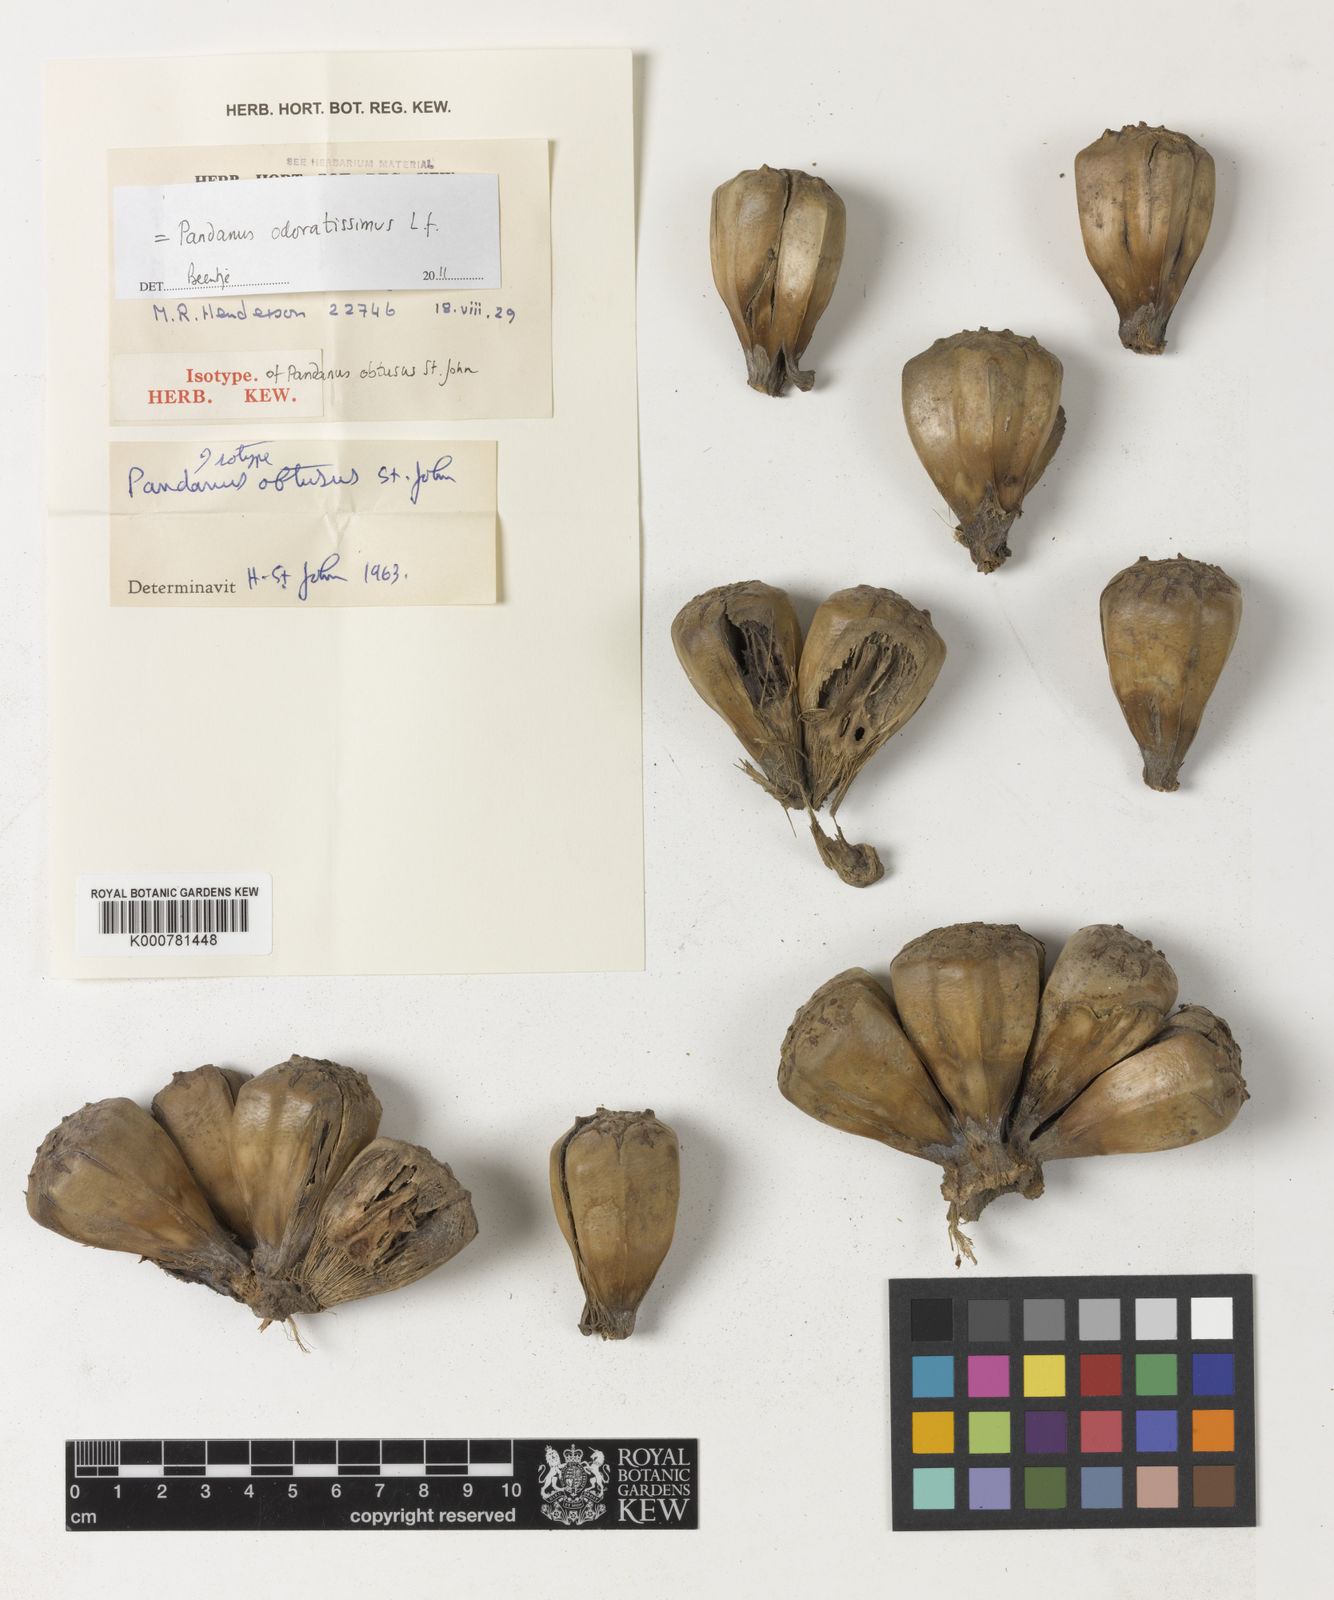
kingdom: Plantae
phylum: Tracheophyta
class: Liliopsida
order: Pandanales
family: Pandanaceae
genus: Pandanus
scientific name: Pandanus odorifer
